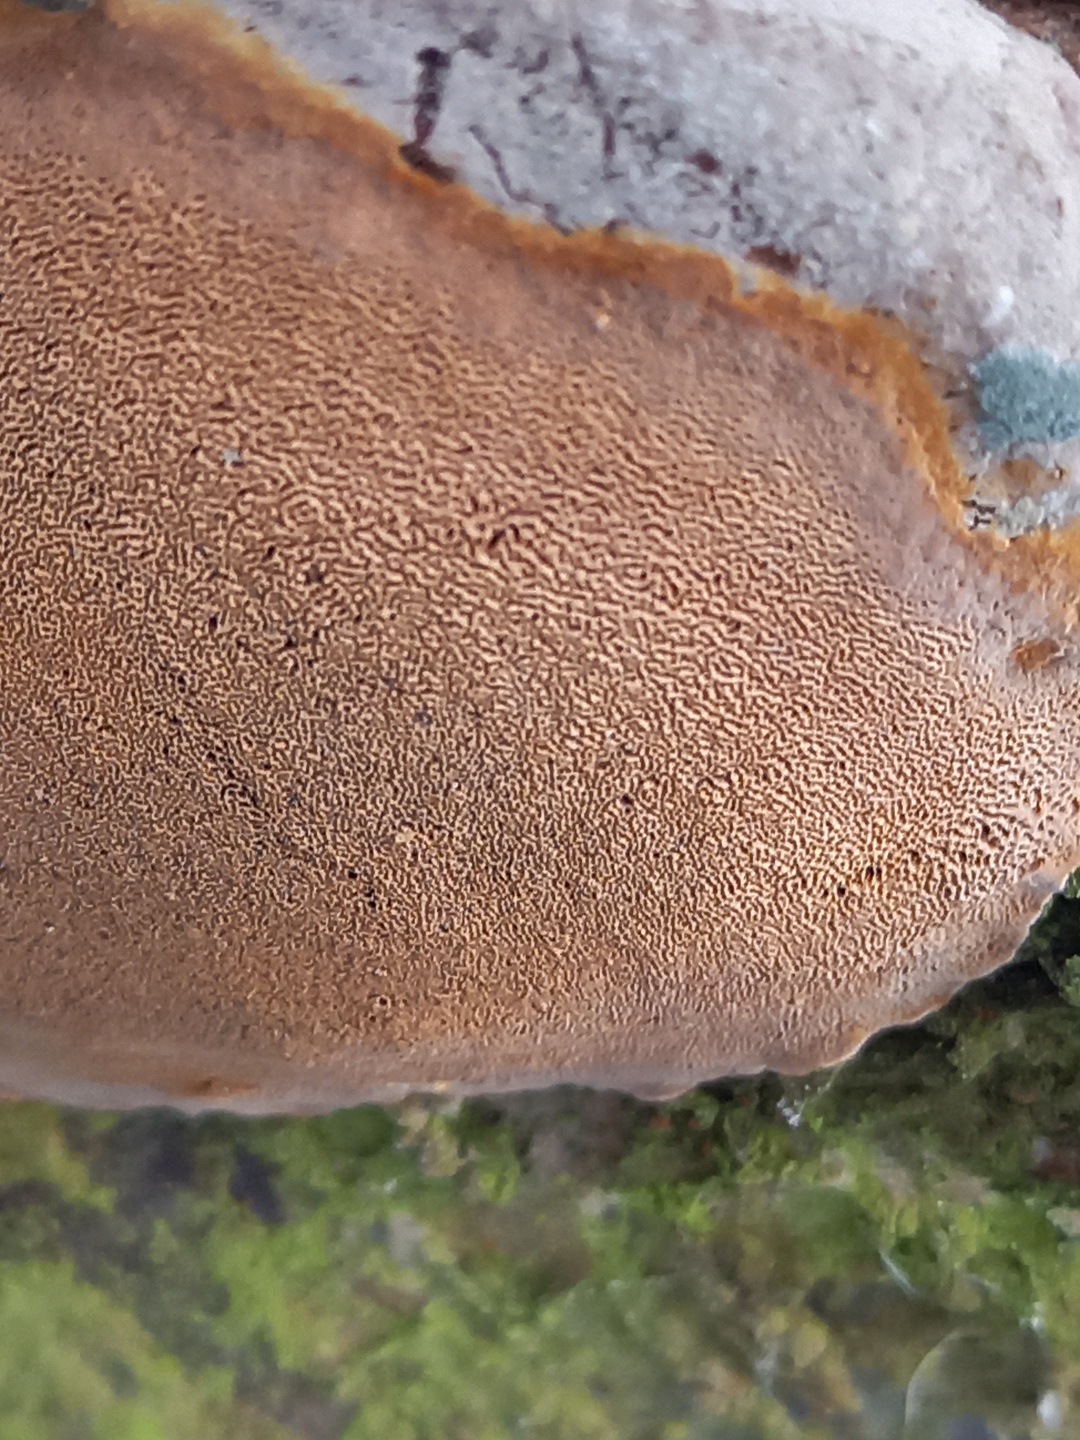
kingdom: Fungi
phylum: Basidiomycota
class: Agaricomycetes
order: Hymenochaetales
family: Hymenochaetaceae
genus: Phellinus
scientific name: Phellinus pomaceus
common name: blomme-ildporesvamp
